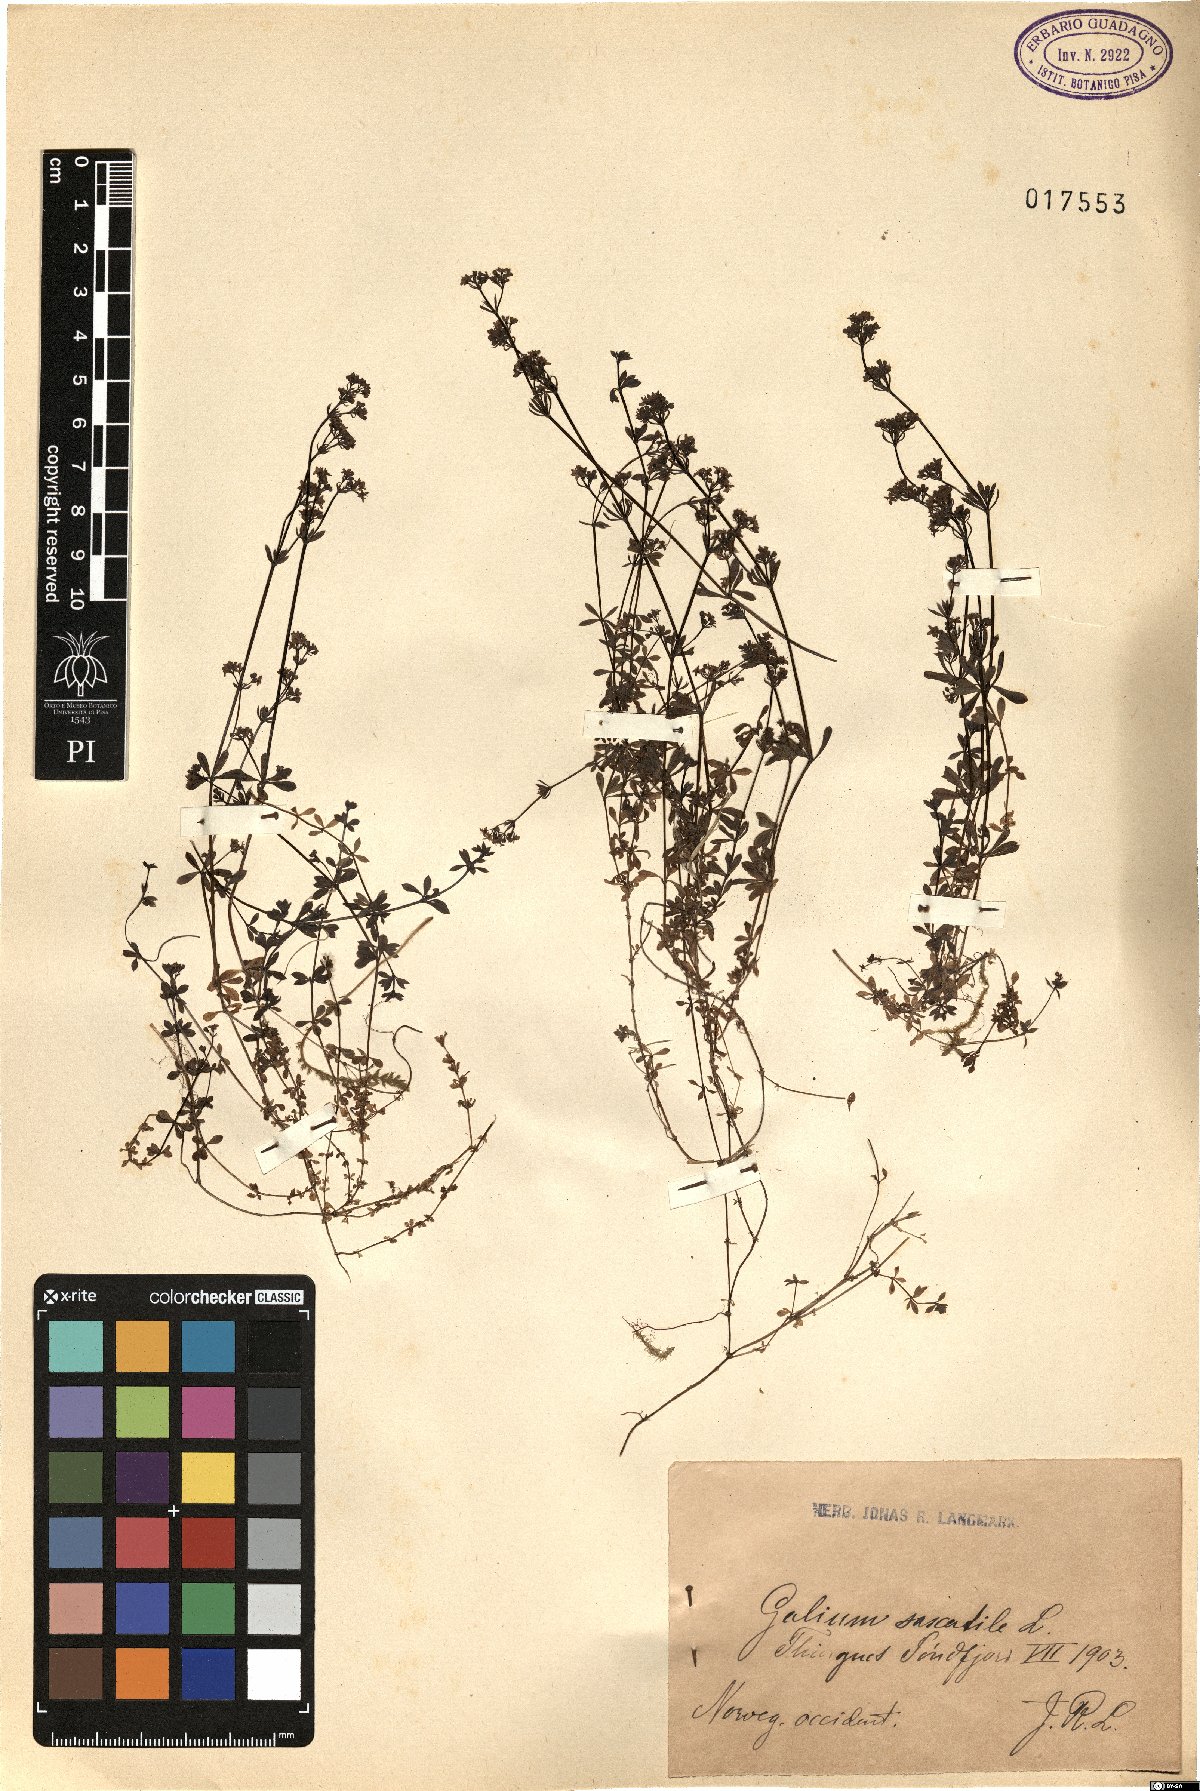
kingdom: Plantae
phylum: Tracheophyta
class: Magnoliopsida
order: Gentianales
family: Rubiaceae
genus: Galium
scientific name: Galium saxatile
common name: Heath bedstraw
